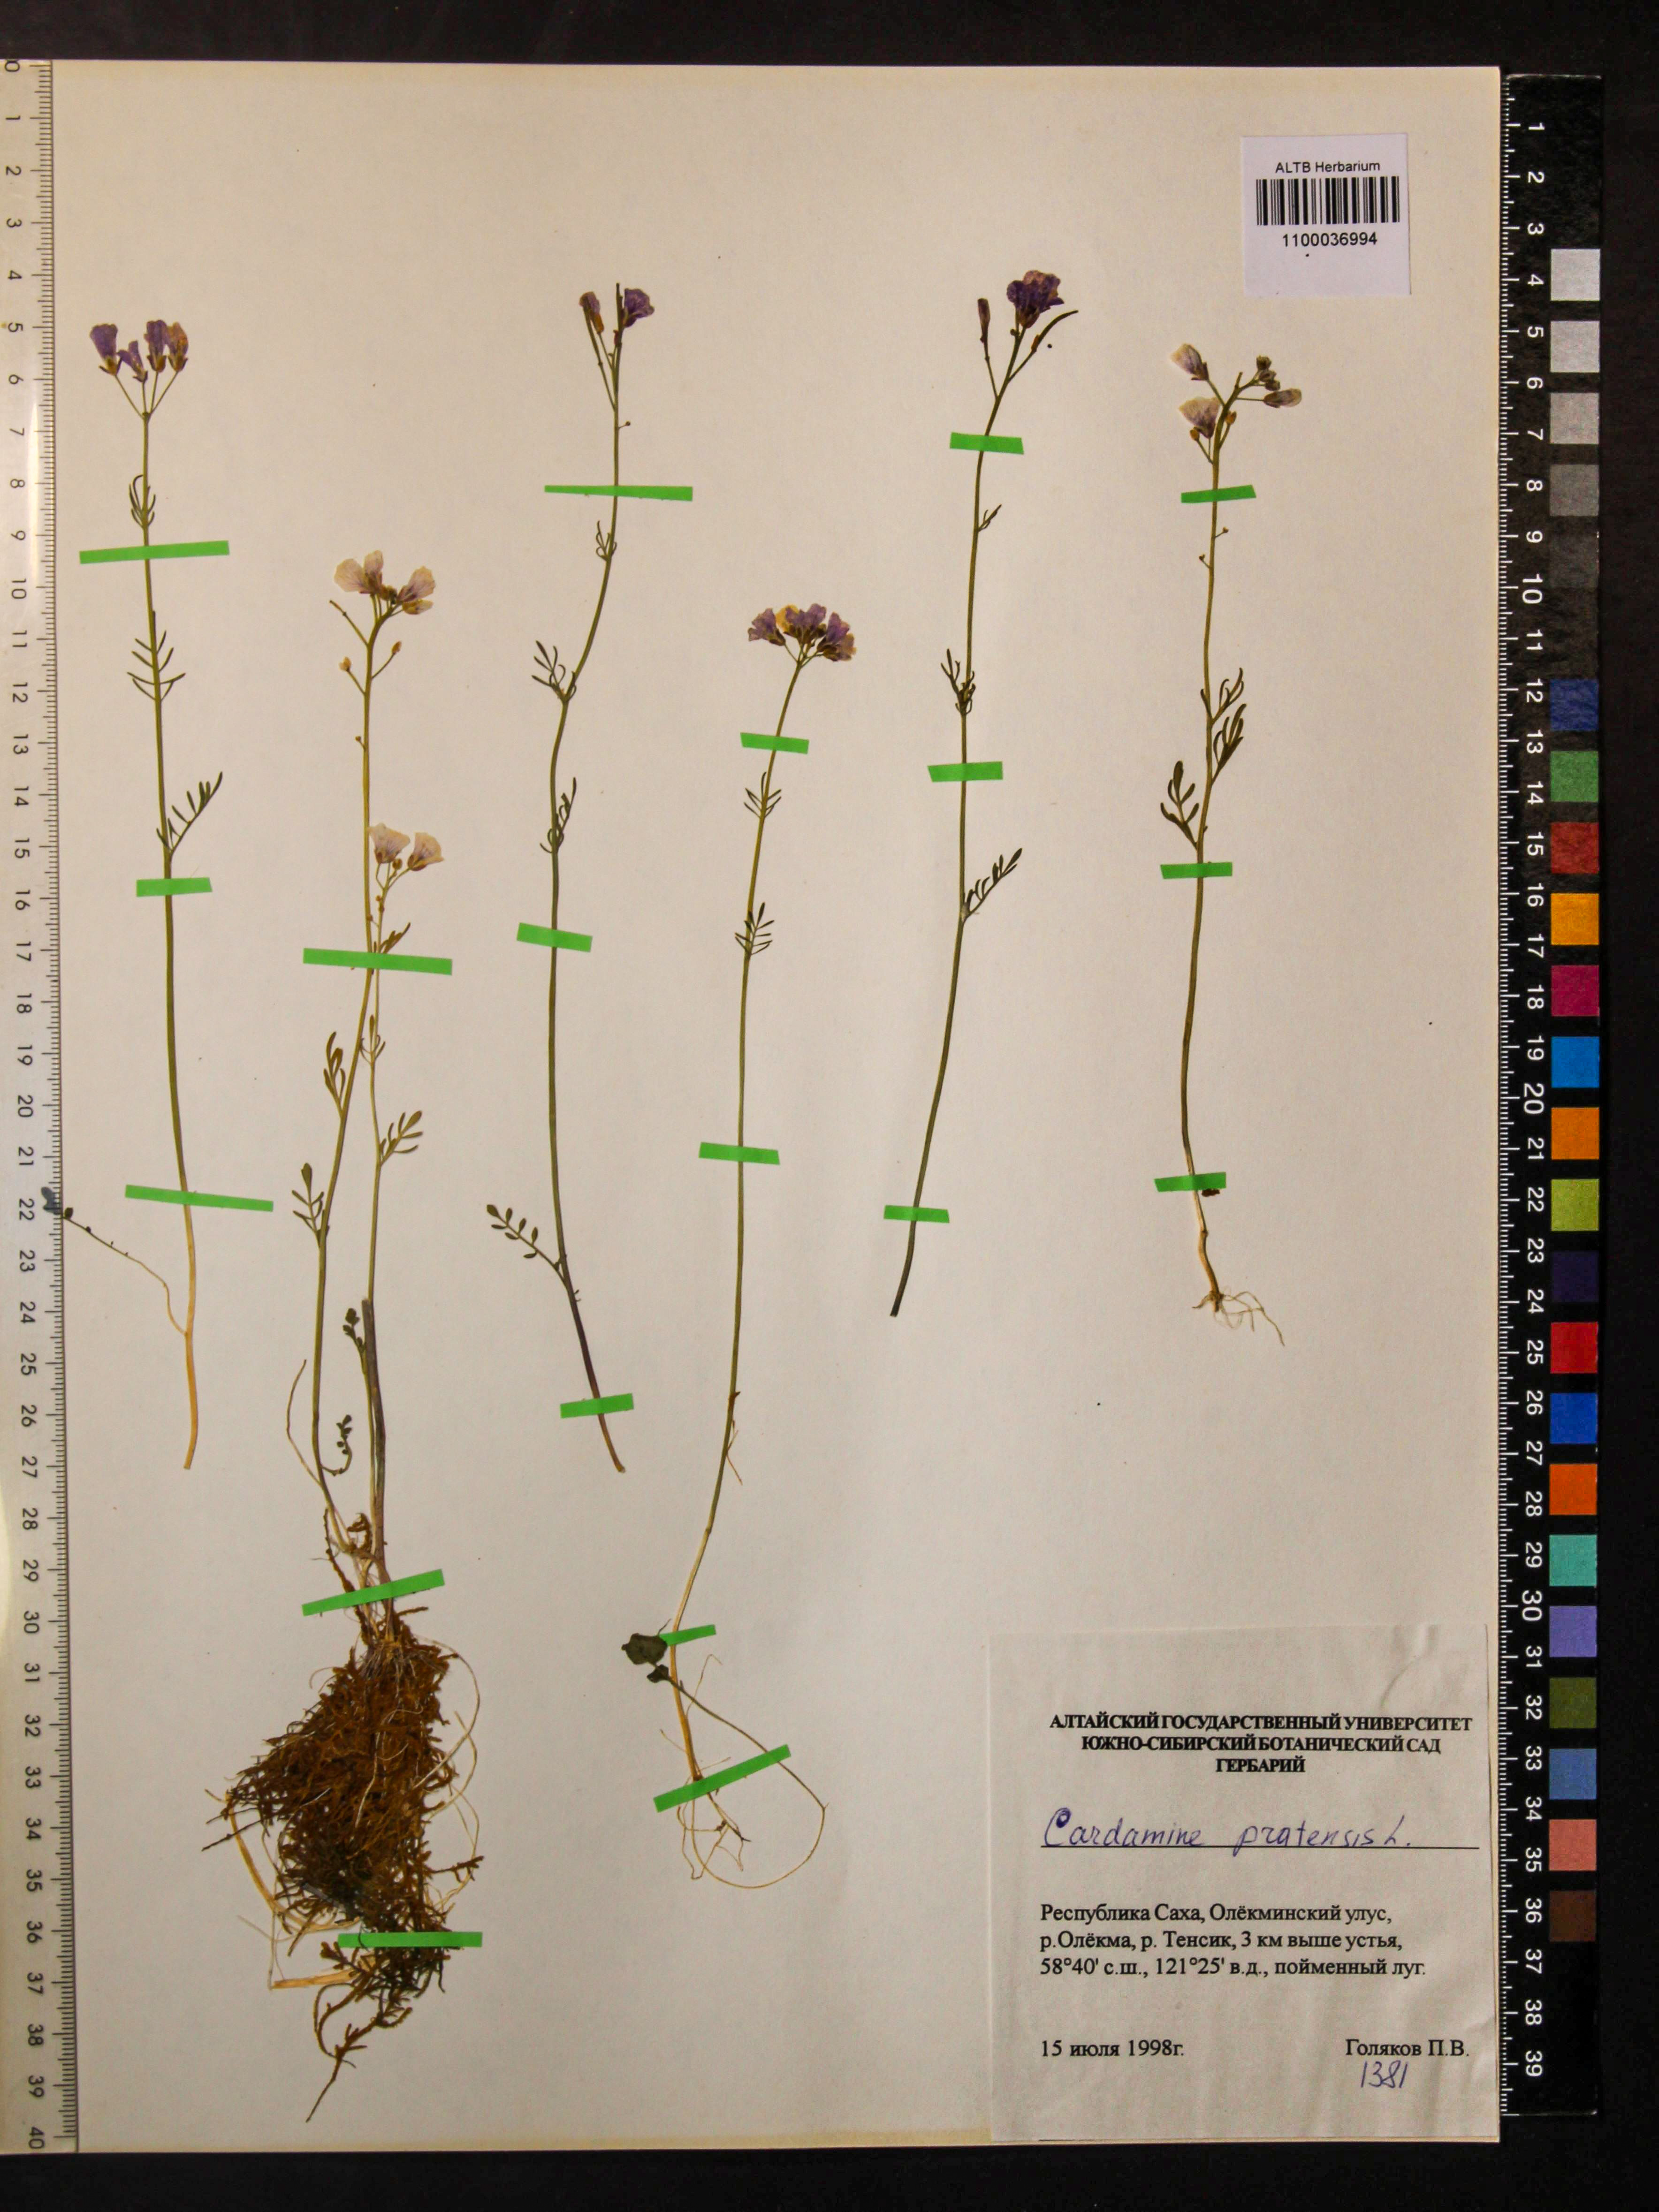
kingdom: Plantae
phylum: Tracheophyta
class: Magnoliopsida
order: Brassicales
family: Brassicaceae
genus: Cardamine
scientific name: Cardamine pratensis
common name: Cuckoo flower
